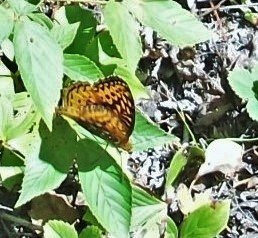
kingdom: Animalia
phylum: Arthropoda
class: Insecta
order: Lepidoptera
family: Nymphalidae
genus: Speyeria
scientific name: Speyeria cybele
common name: Great Spangled Fritillary
